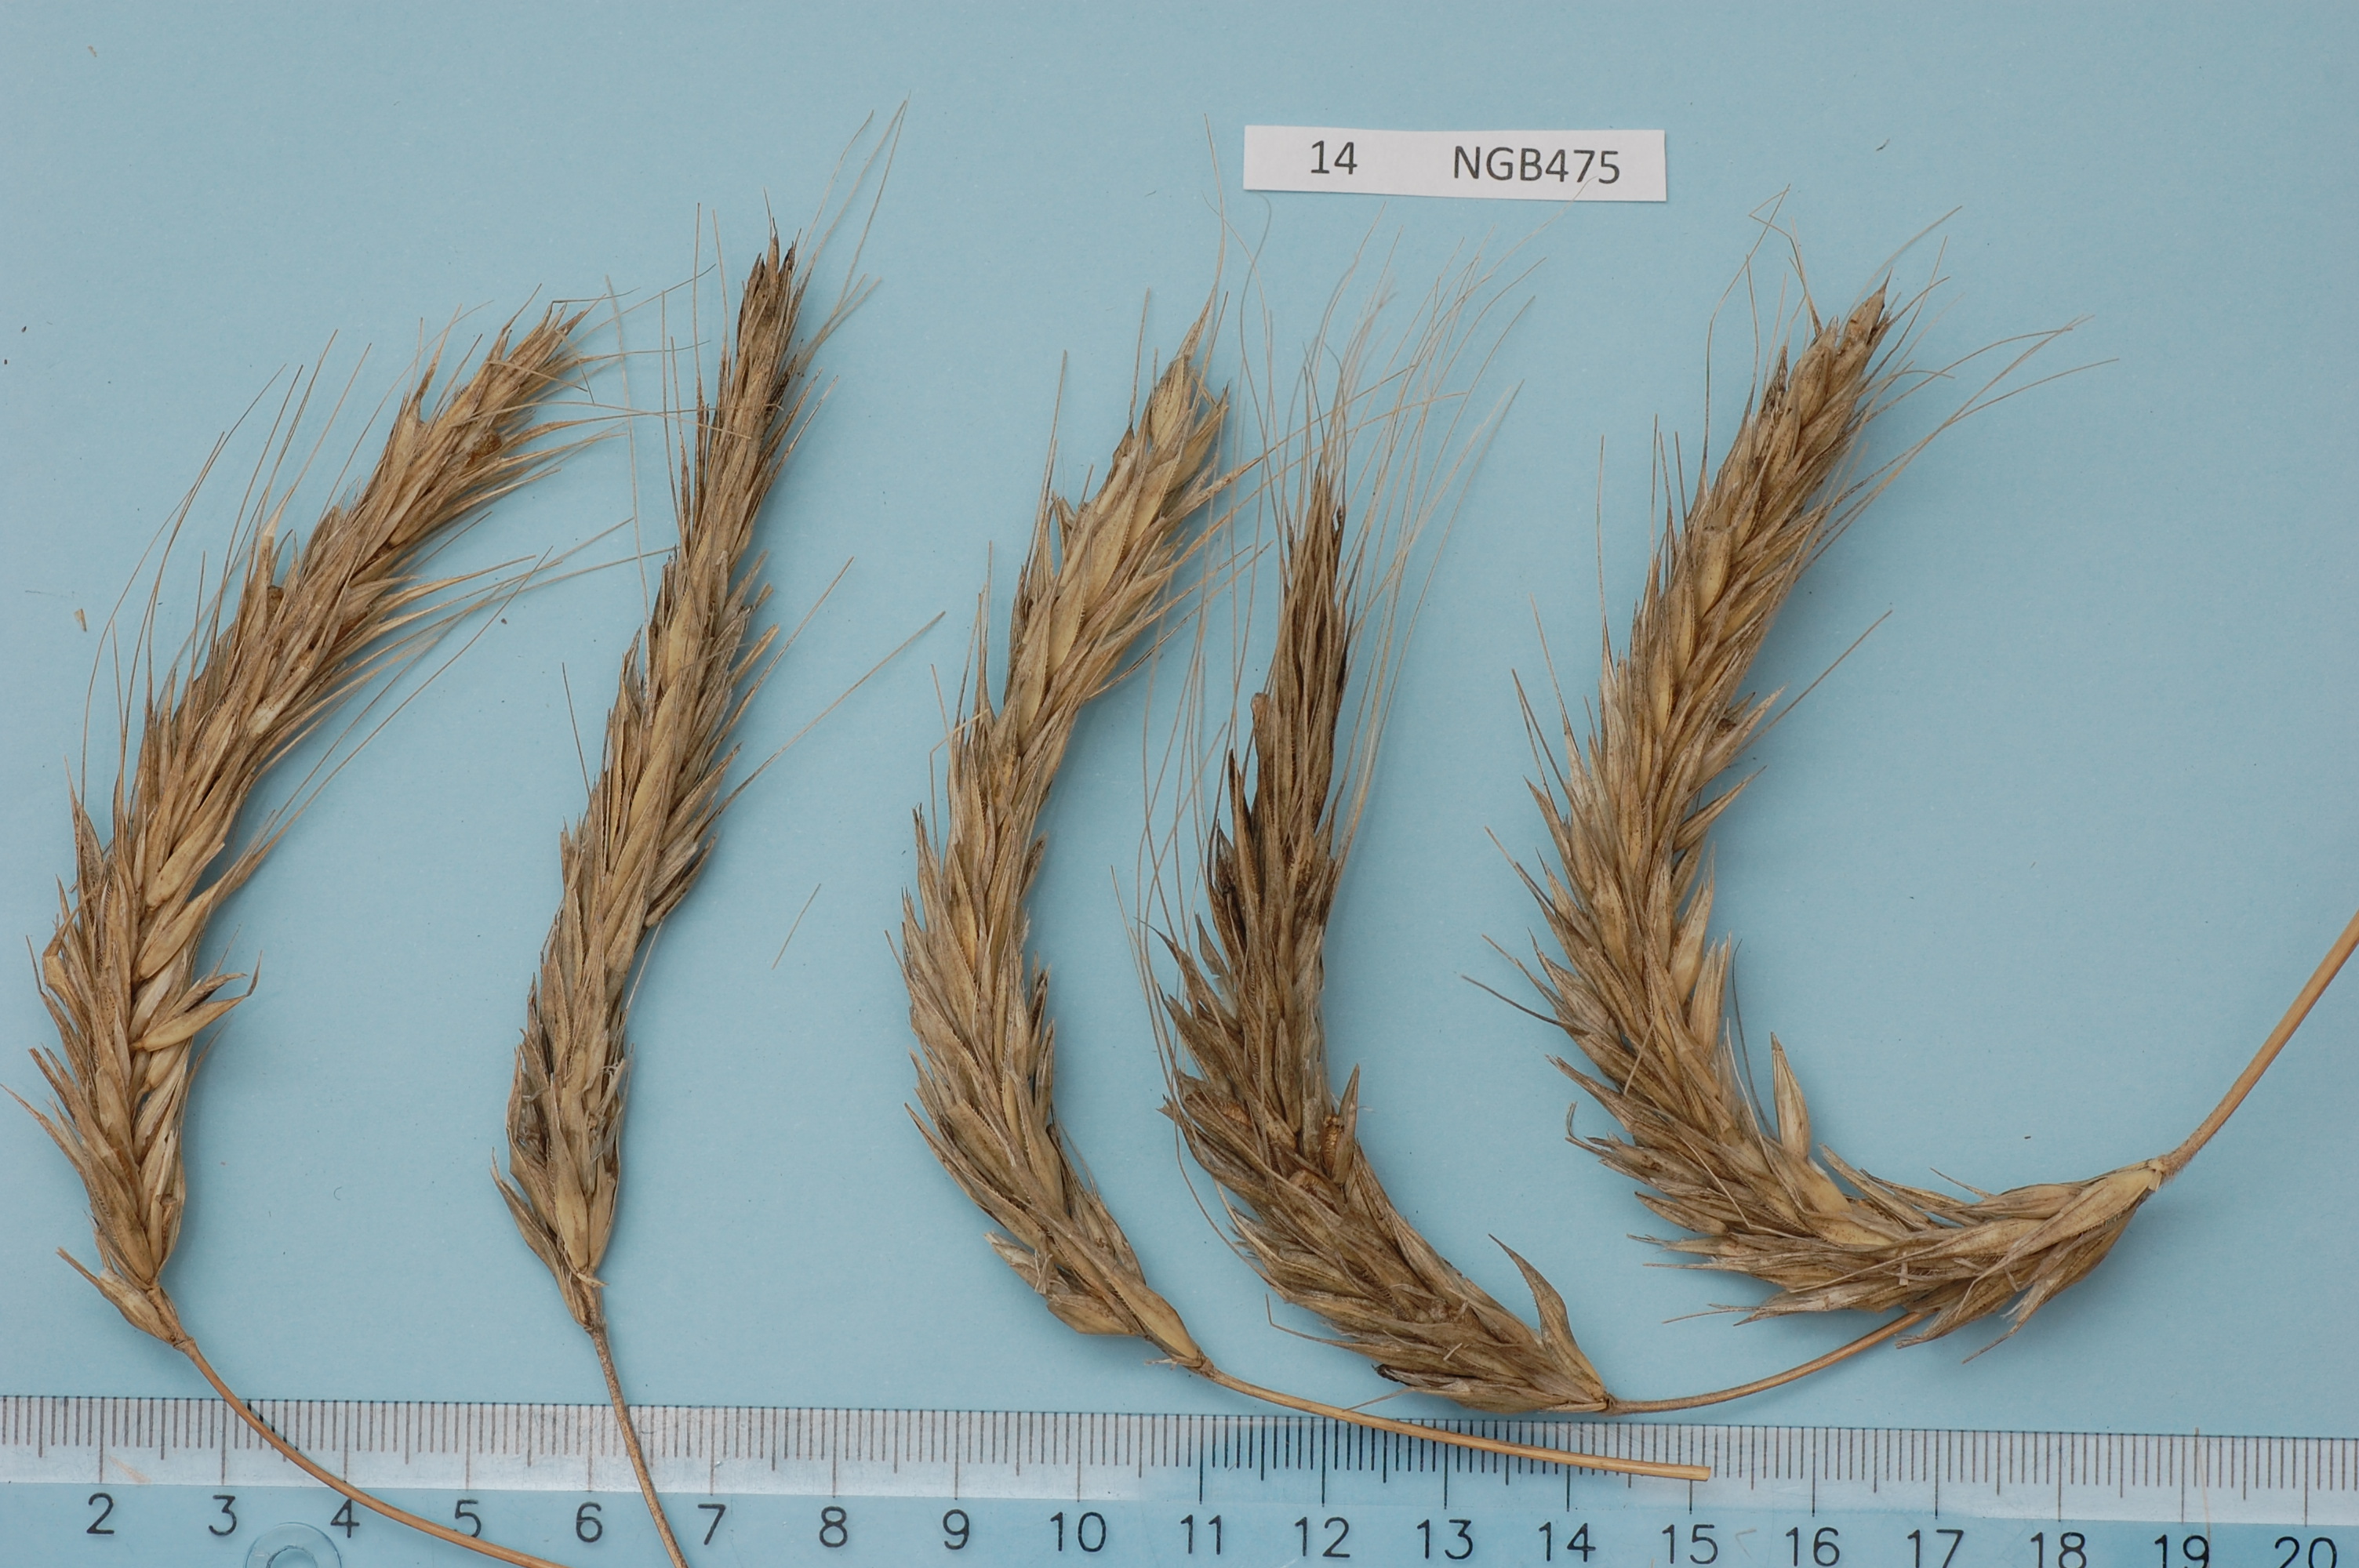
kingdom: Plantae
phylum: Tracheophyta
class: Liliopsida
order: Poales
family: Poaceae
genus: Secale
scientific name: Secale cereale
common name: Rye
